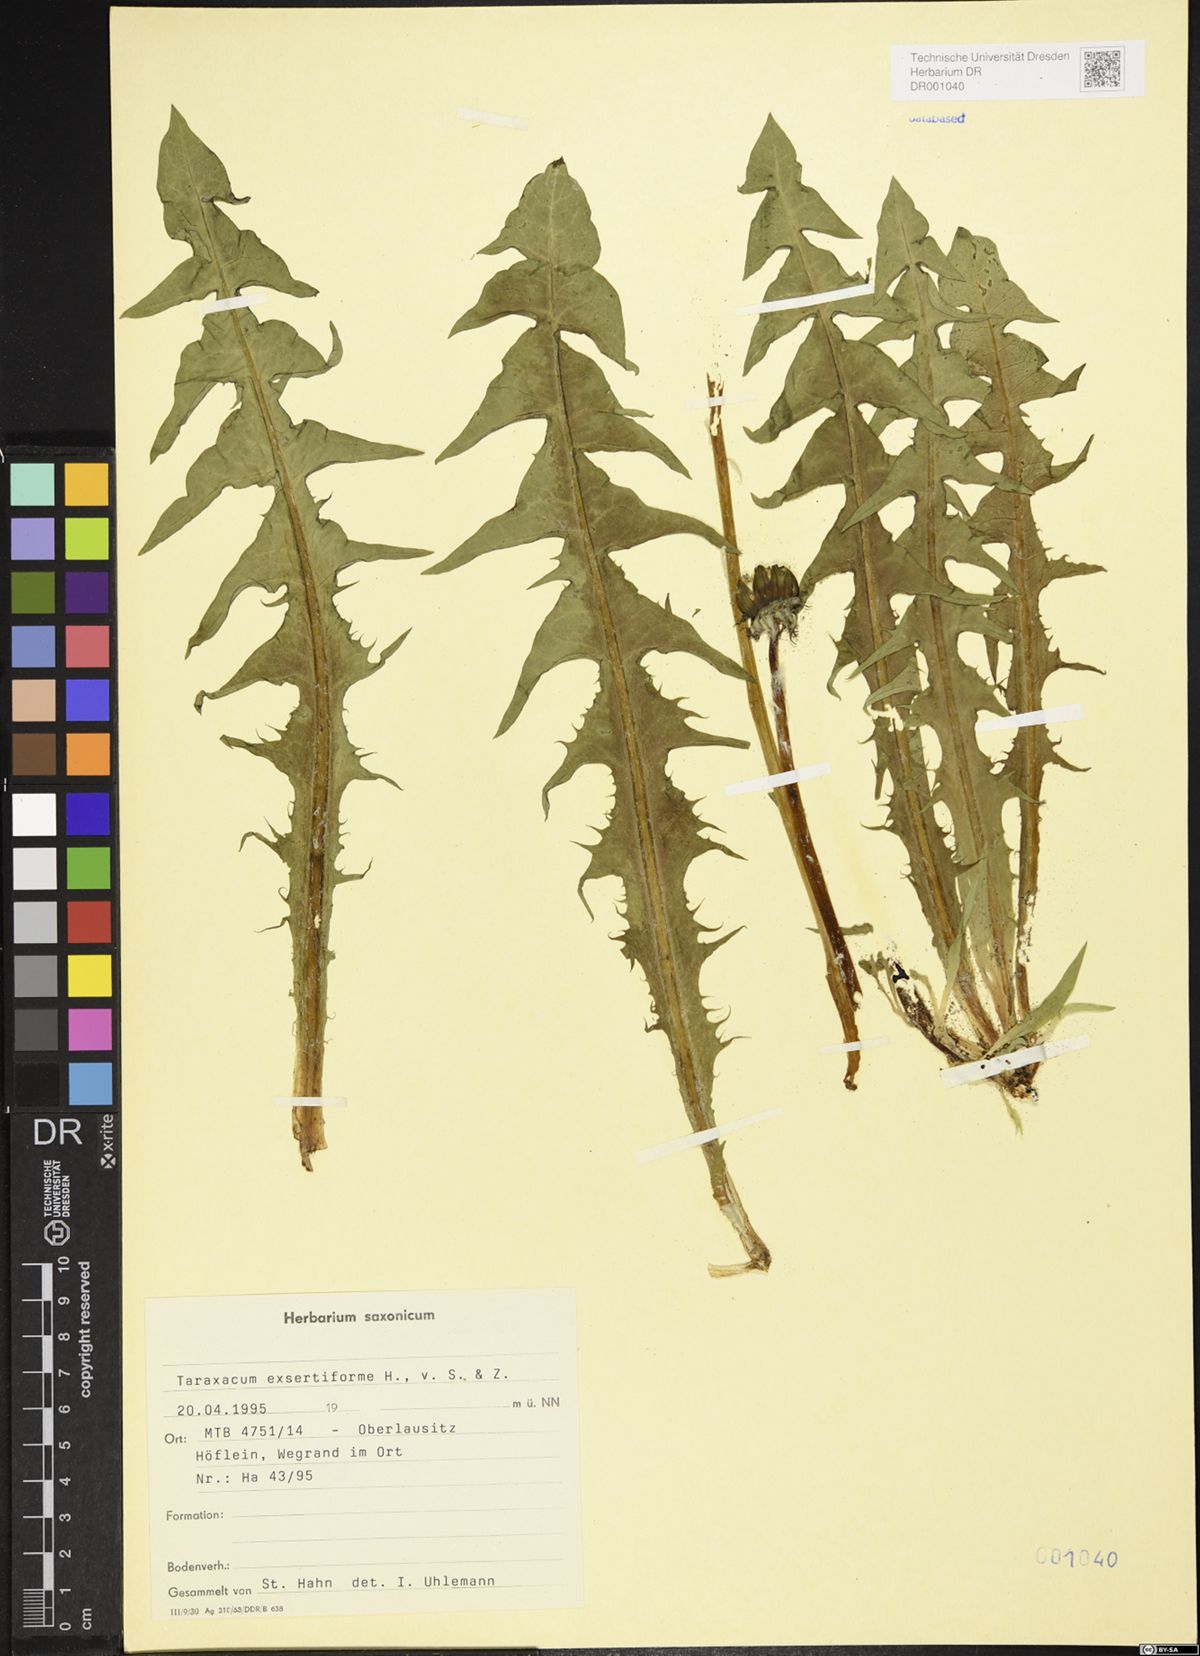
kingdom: Plantae
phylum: Tracheophyta
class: Magnoliopsida
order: Asterales
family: Asteraceae
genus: Taraxacum
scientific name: Taraxacum exsertiforme
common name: Erect-bracted dandelion
